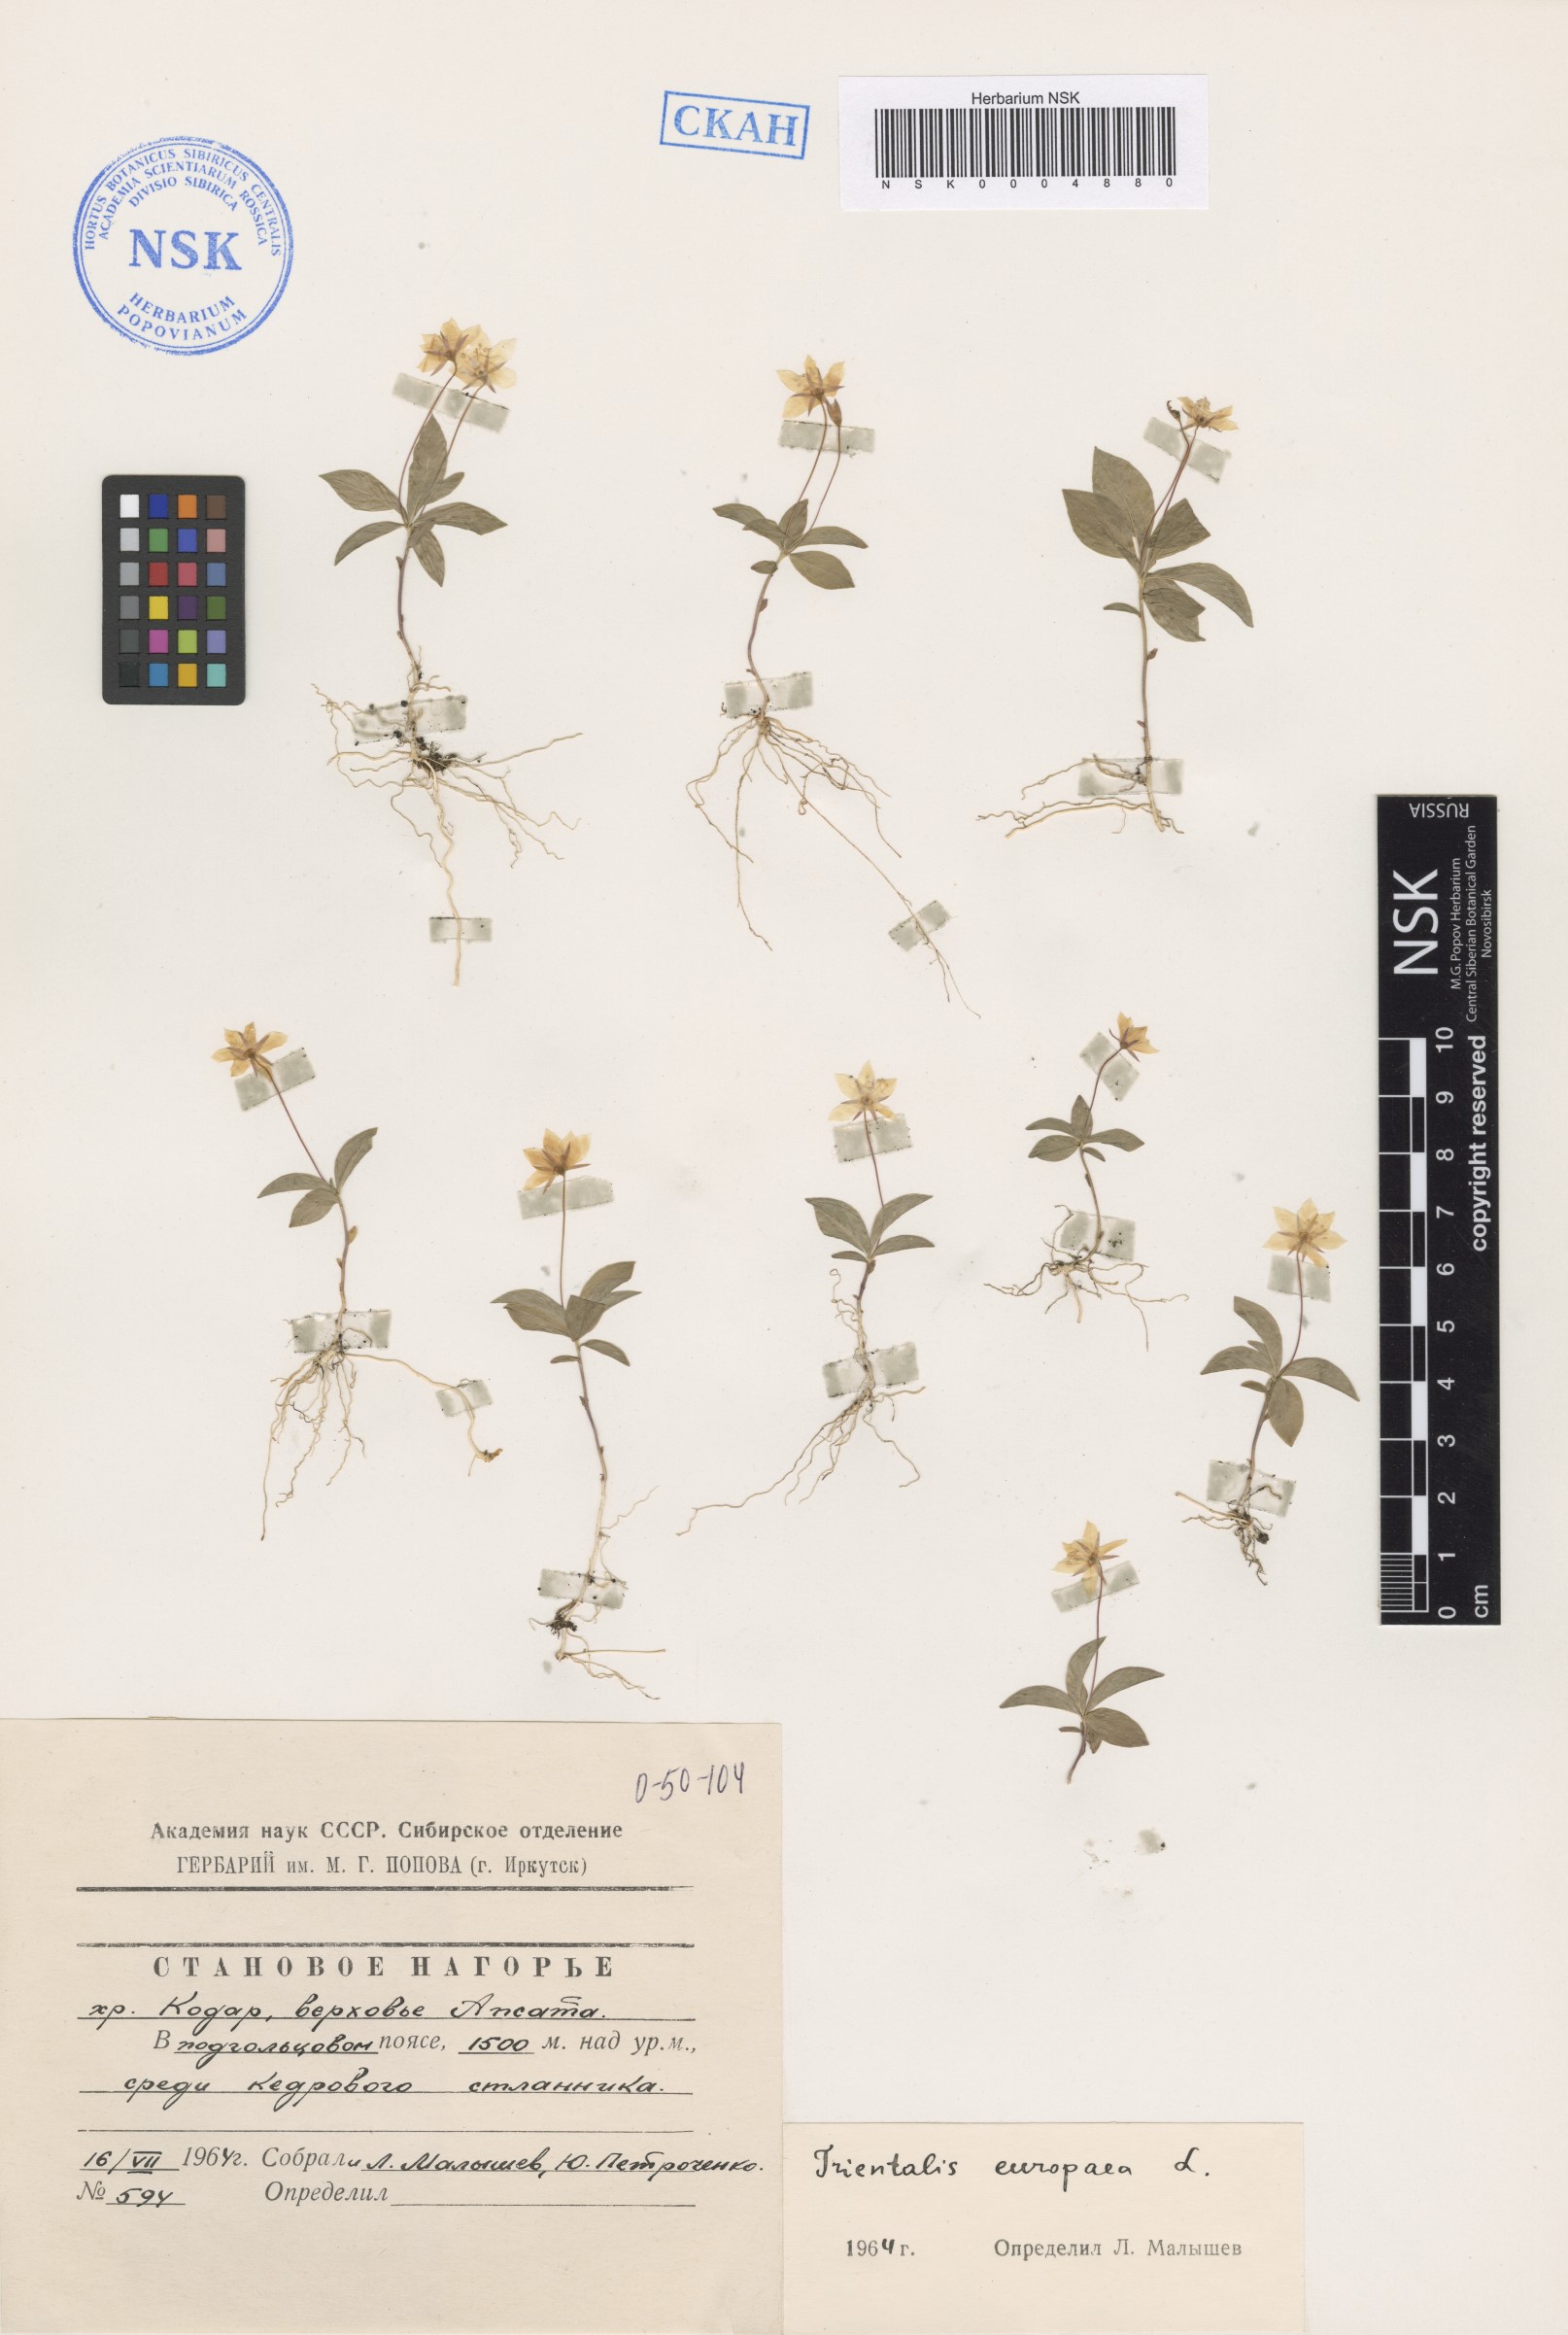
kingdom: Plantae
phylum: Tracheophyta
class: Magnoliopsida
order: Ericales
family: Primulaceae
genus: Lysimachia
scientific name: Lysimachia europaea
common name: Arctic starflower
